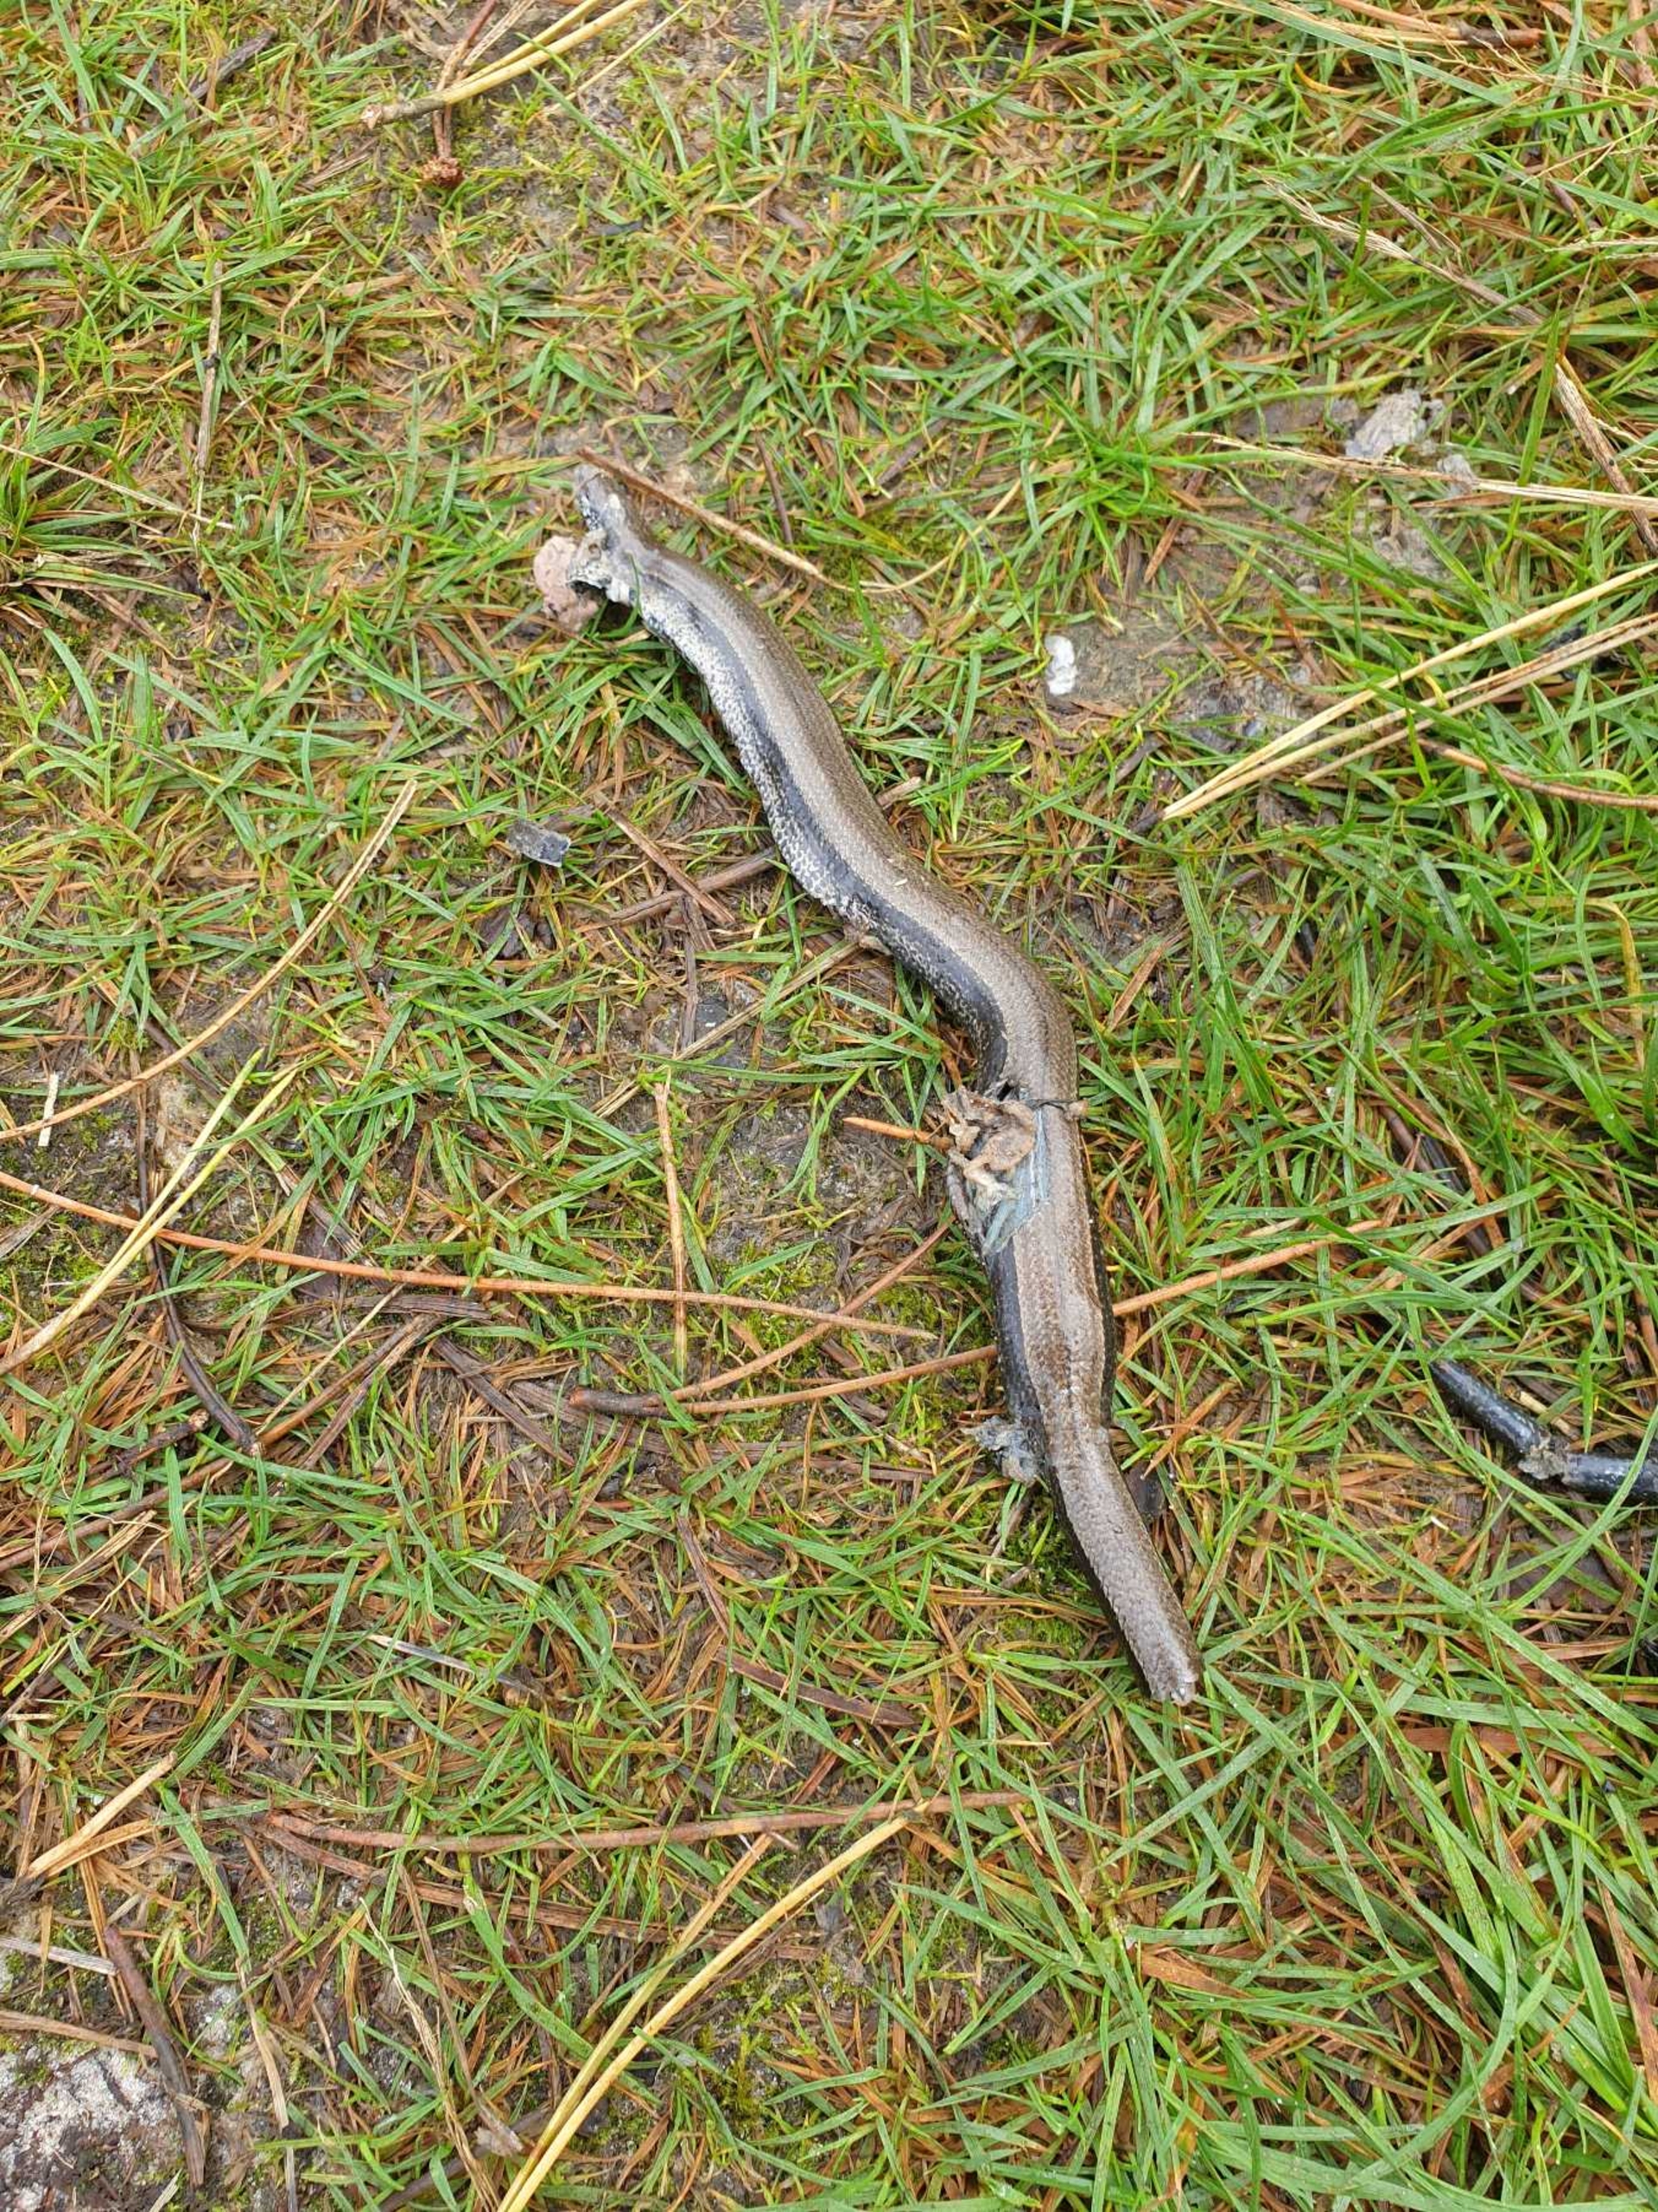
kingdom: Animalia
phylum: Chordata
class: Squamata
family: Anguidae
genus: Anguis
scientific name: Anguis fragilis
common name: Stålorm
